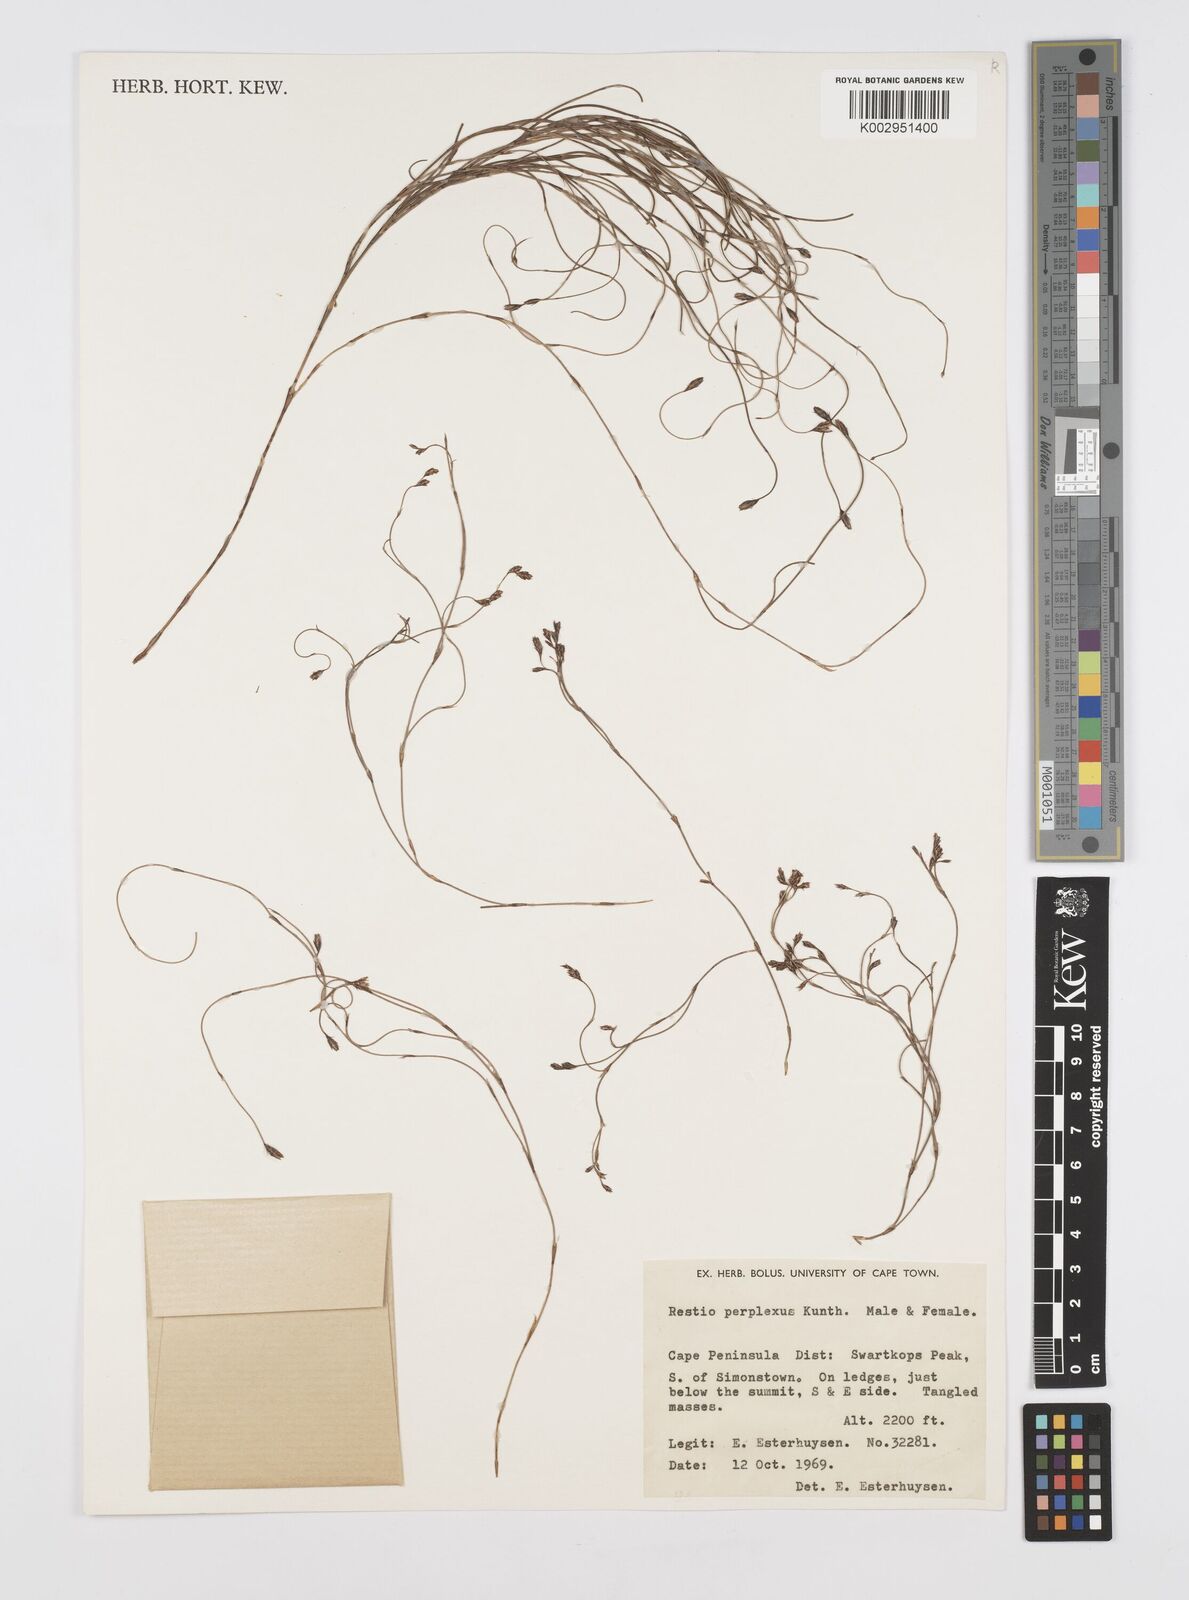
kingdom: Plantae
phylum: Tracheophyta
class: Liliopsida
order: Poales
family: Restionaceae
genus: Restio
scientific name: Restio perplexus
